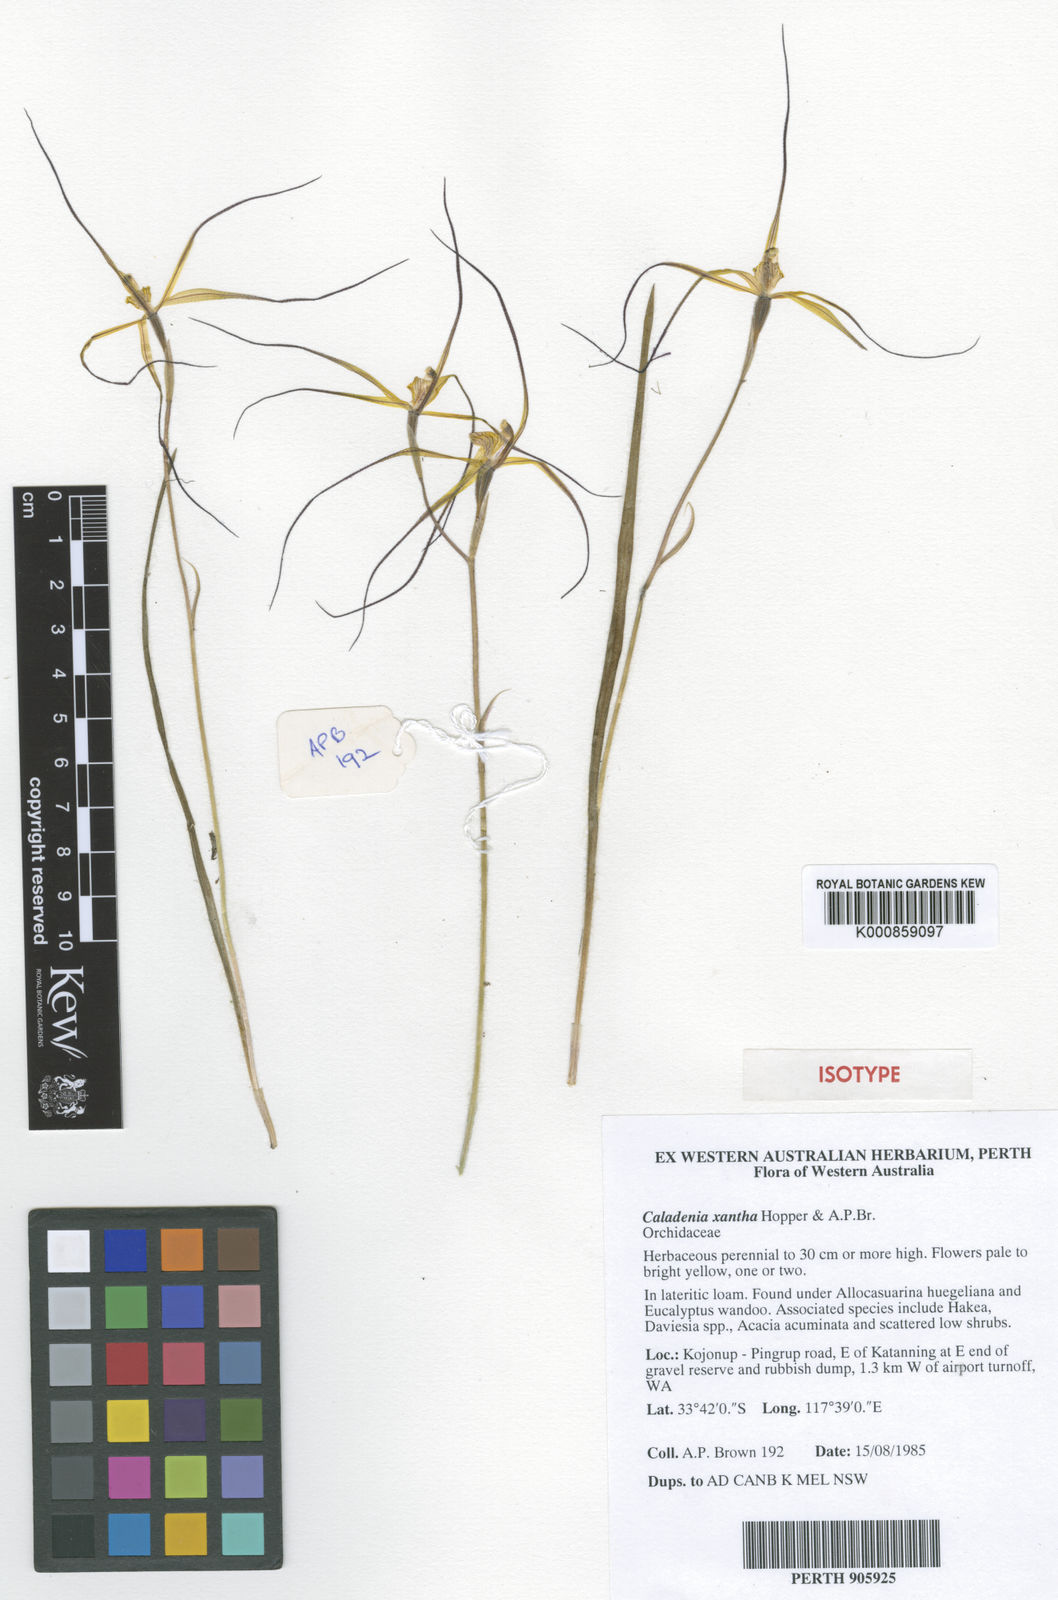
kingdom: Plantae
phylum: Tracheophyta
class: Liliopsida
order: Asparagales
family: Orchidaceae
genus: Caladenia
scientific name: Caladenia xantha
